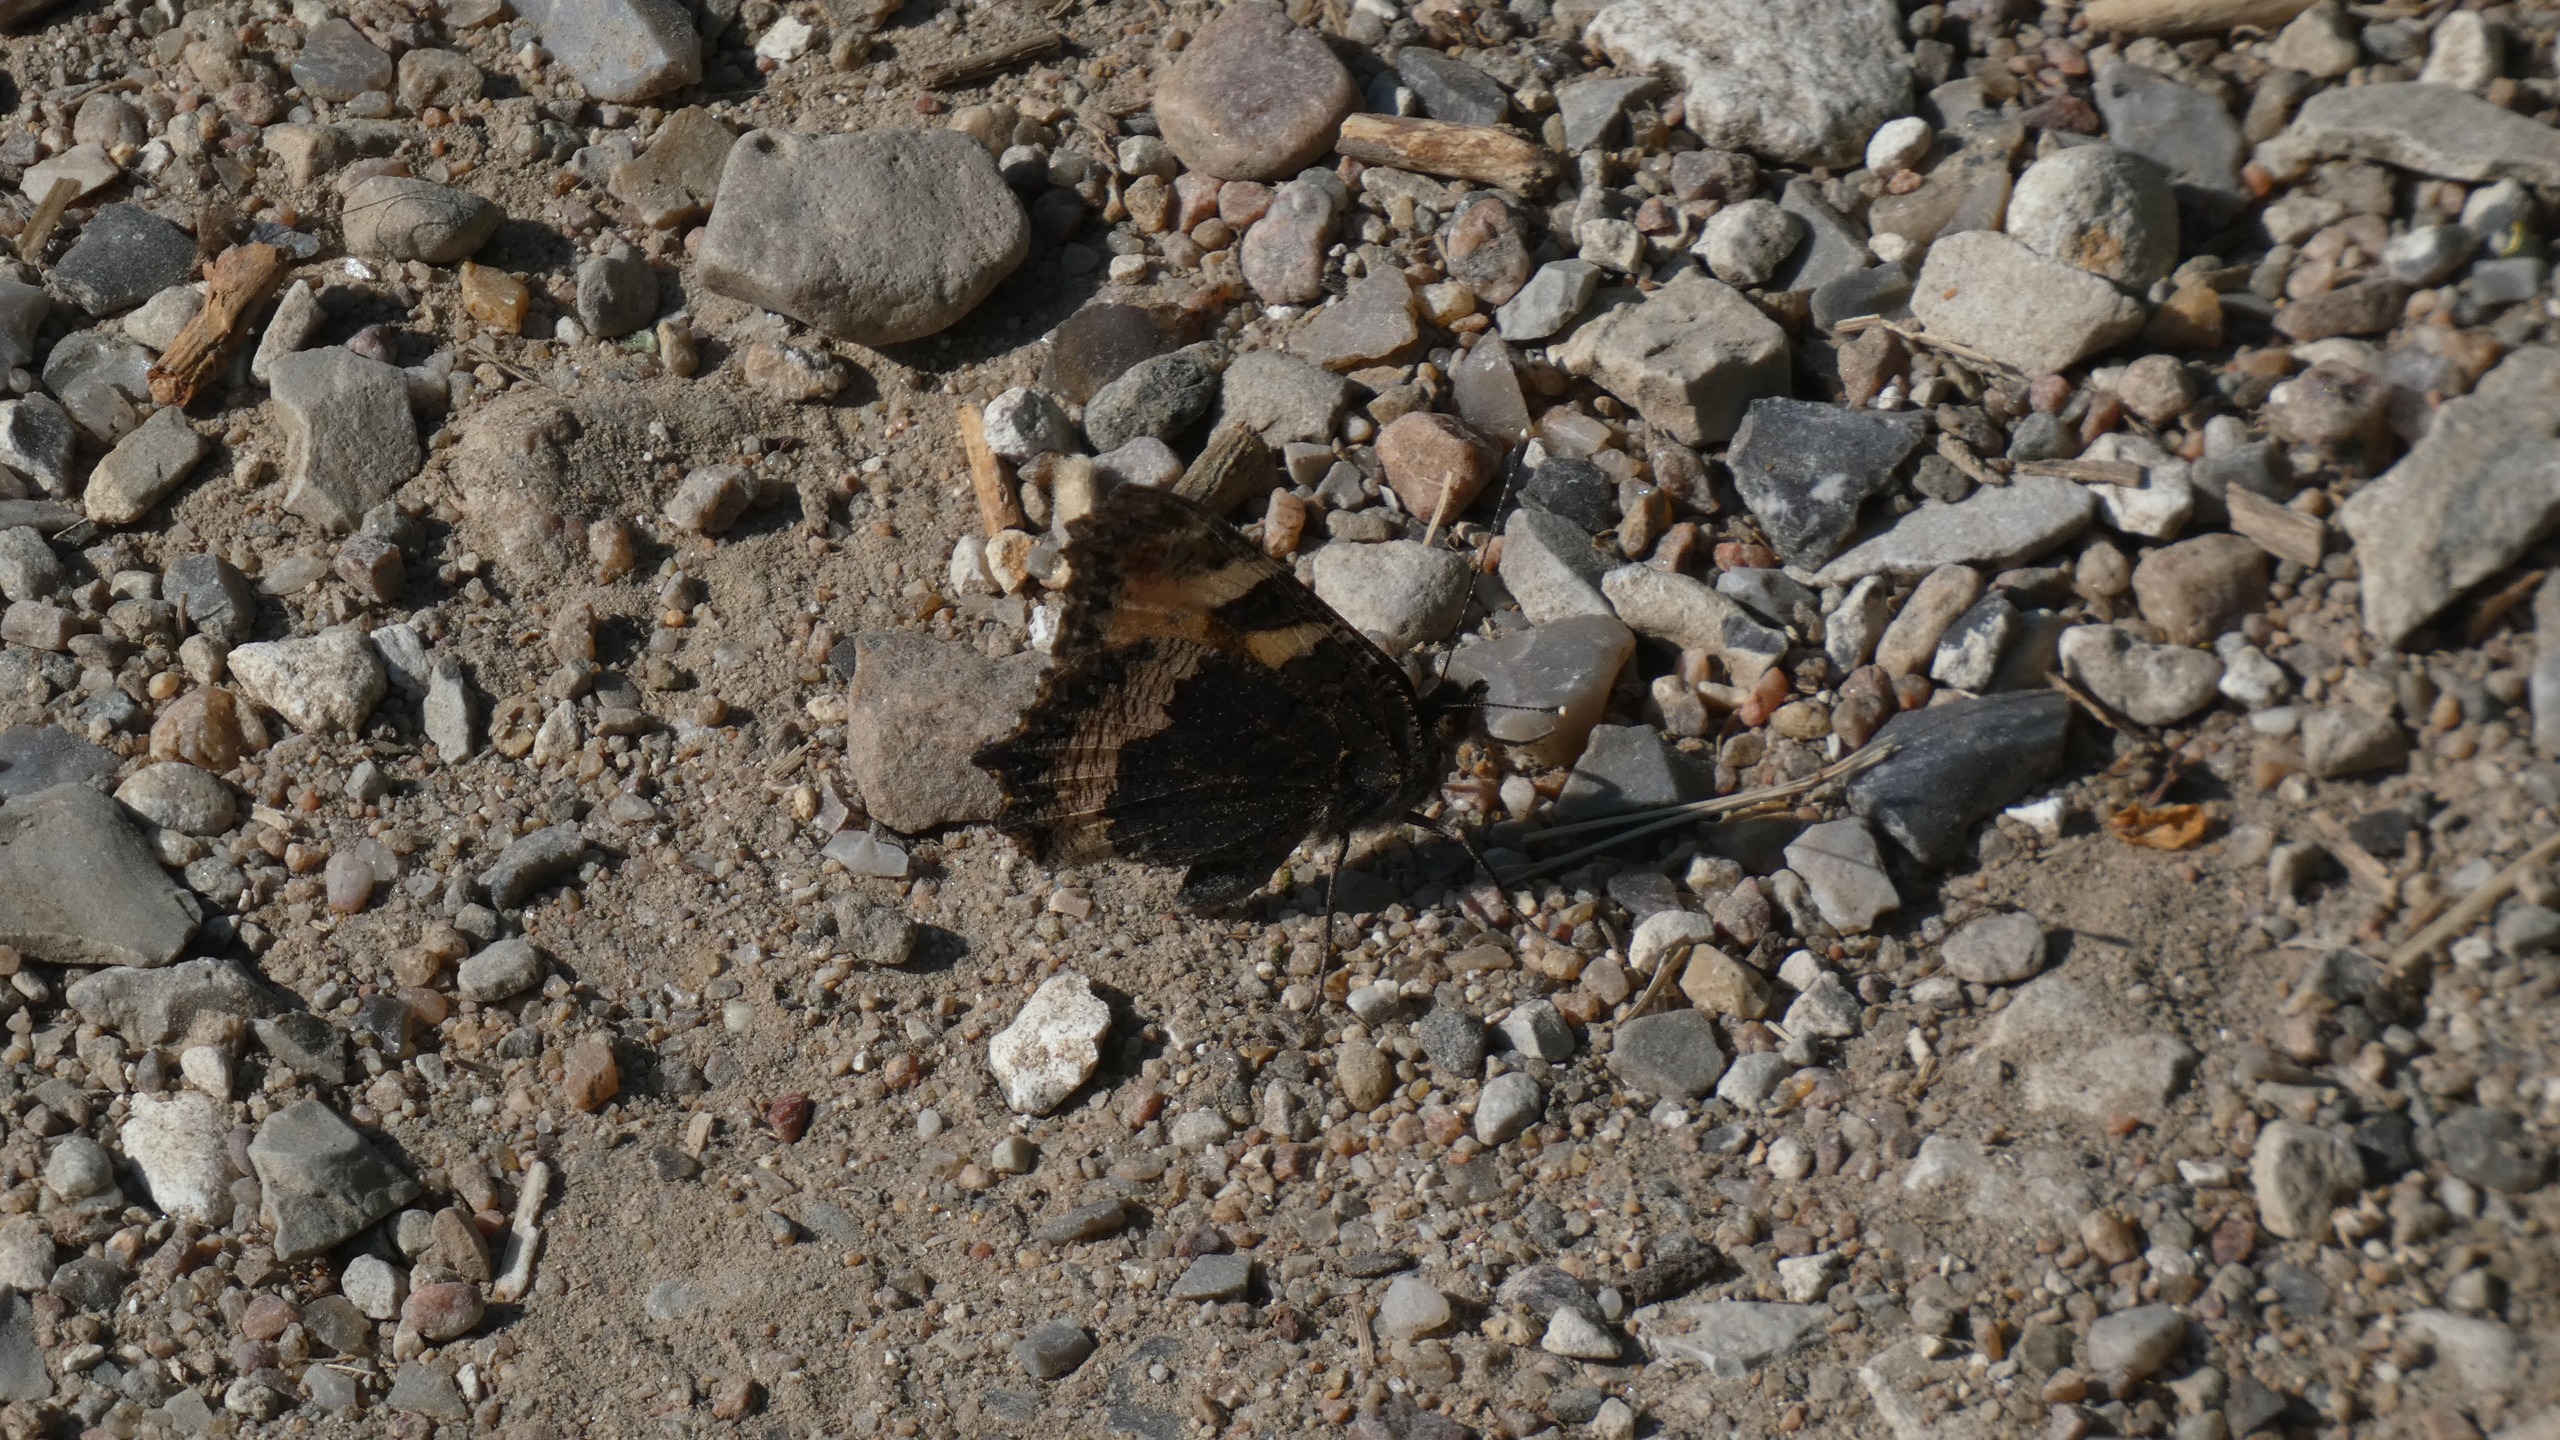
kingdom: Animalia
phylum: Arthropoda
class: Insecta
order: Lepidoptera
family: Nymphalidae
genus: Aglais
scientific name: Aglais urticae
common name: Nældens takvinge
